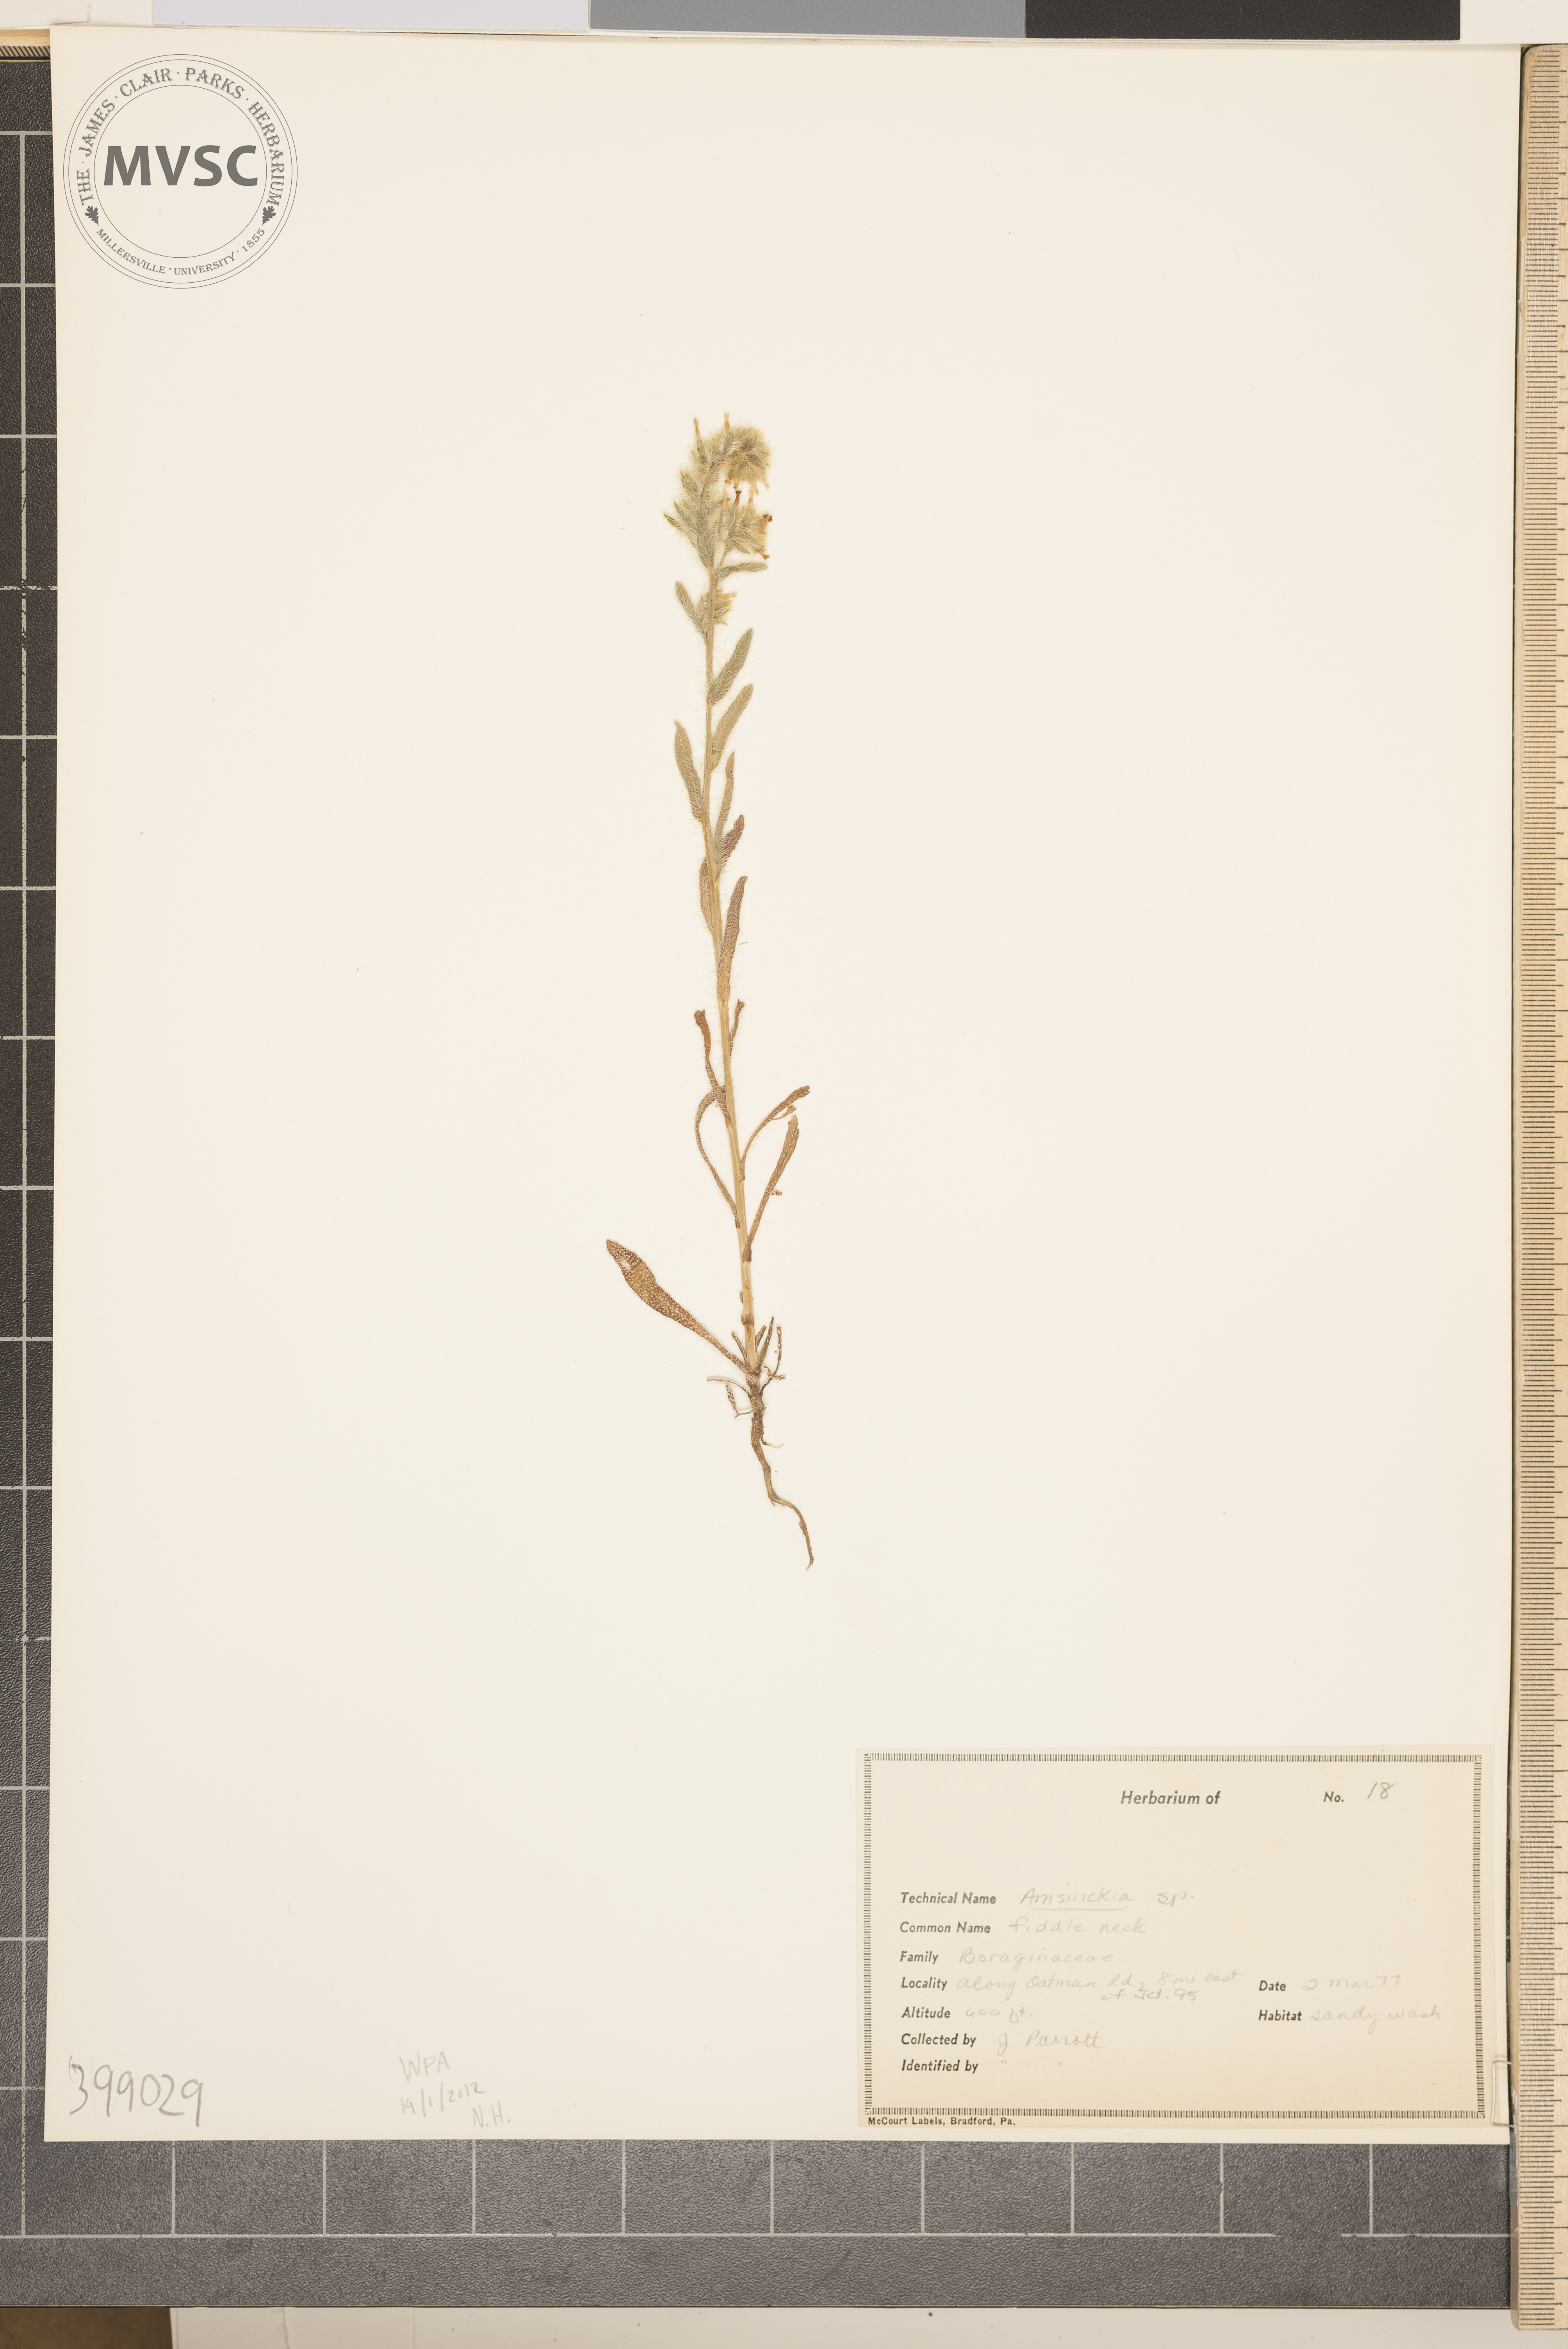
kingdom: Plantae
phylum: Tracheophyta
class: Magnoliopsida
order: Boraginales
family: Boraginaceae
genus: Amsinckia
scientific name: Amsinckia
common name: Hog peanut
